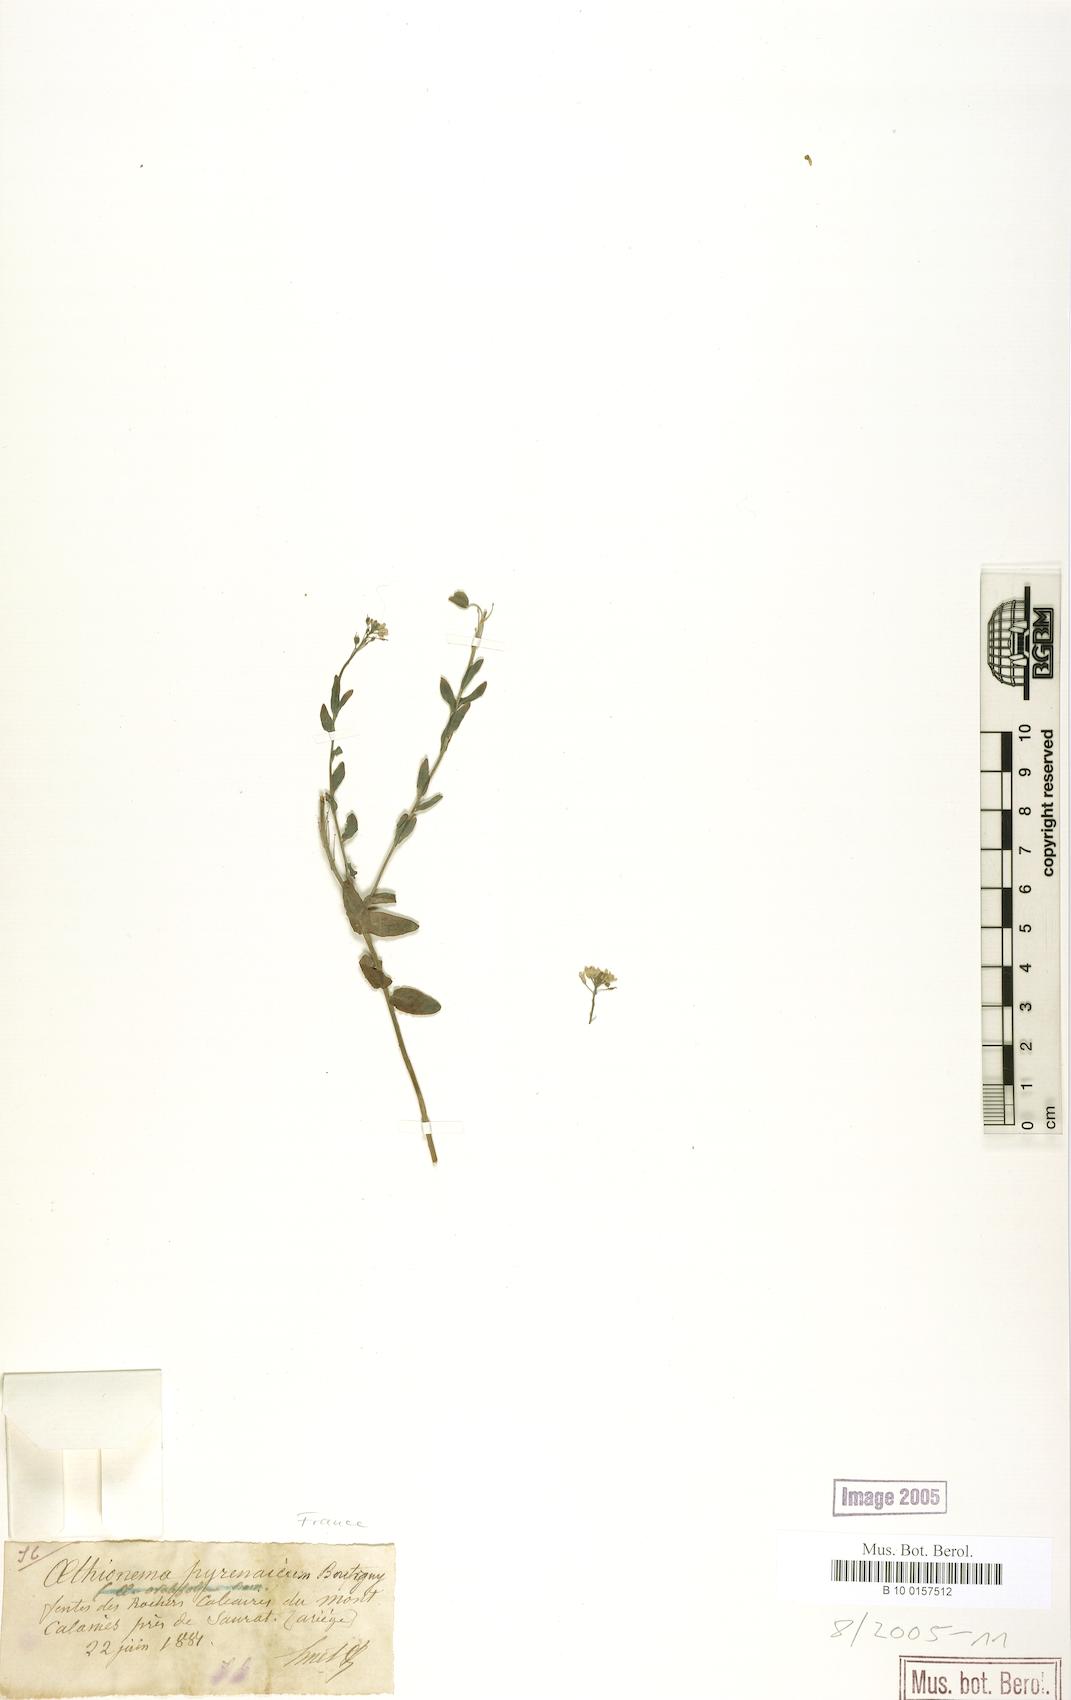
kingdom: Plantae
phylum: Tracheophyta
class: Magnoliopsida
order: Brassicales
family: Brassicaceae
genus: Aethionema
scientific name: Aethionema saxatile
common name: Burnt candytuft
